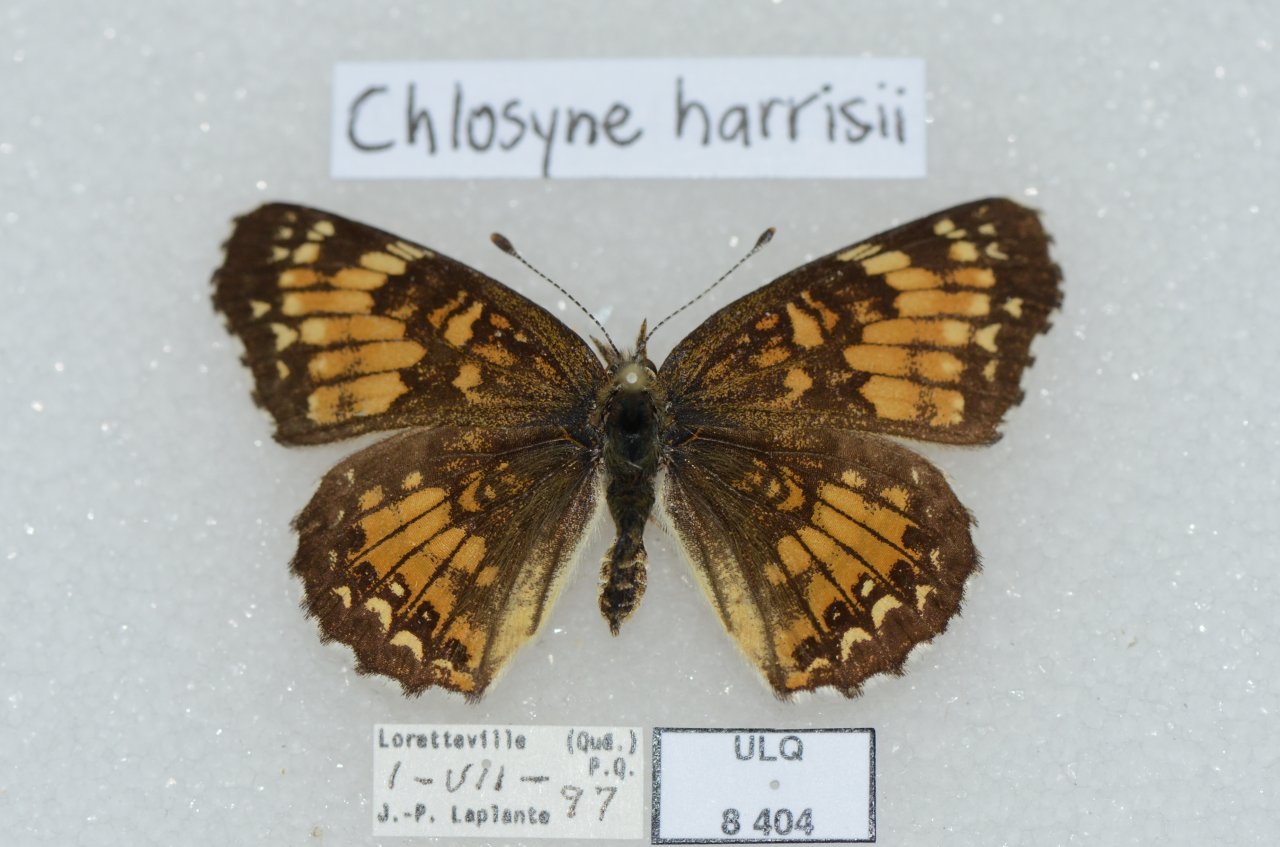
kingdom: Animalia
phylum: Arthropoda
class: Insecta
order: Lepidoptera
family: Nymphalidae
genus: Chlosyne
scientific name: Chlosyne harrisii
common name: Harris's Checkerspot
